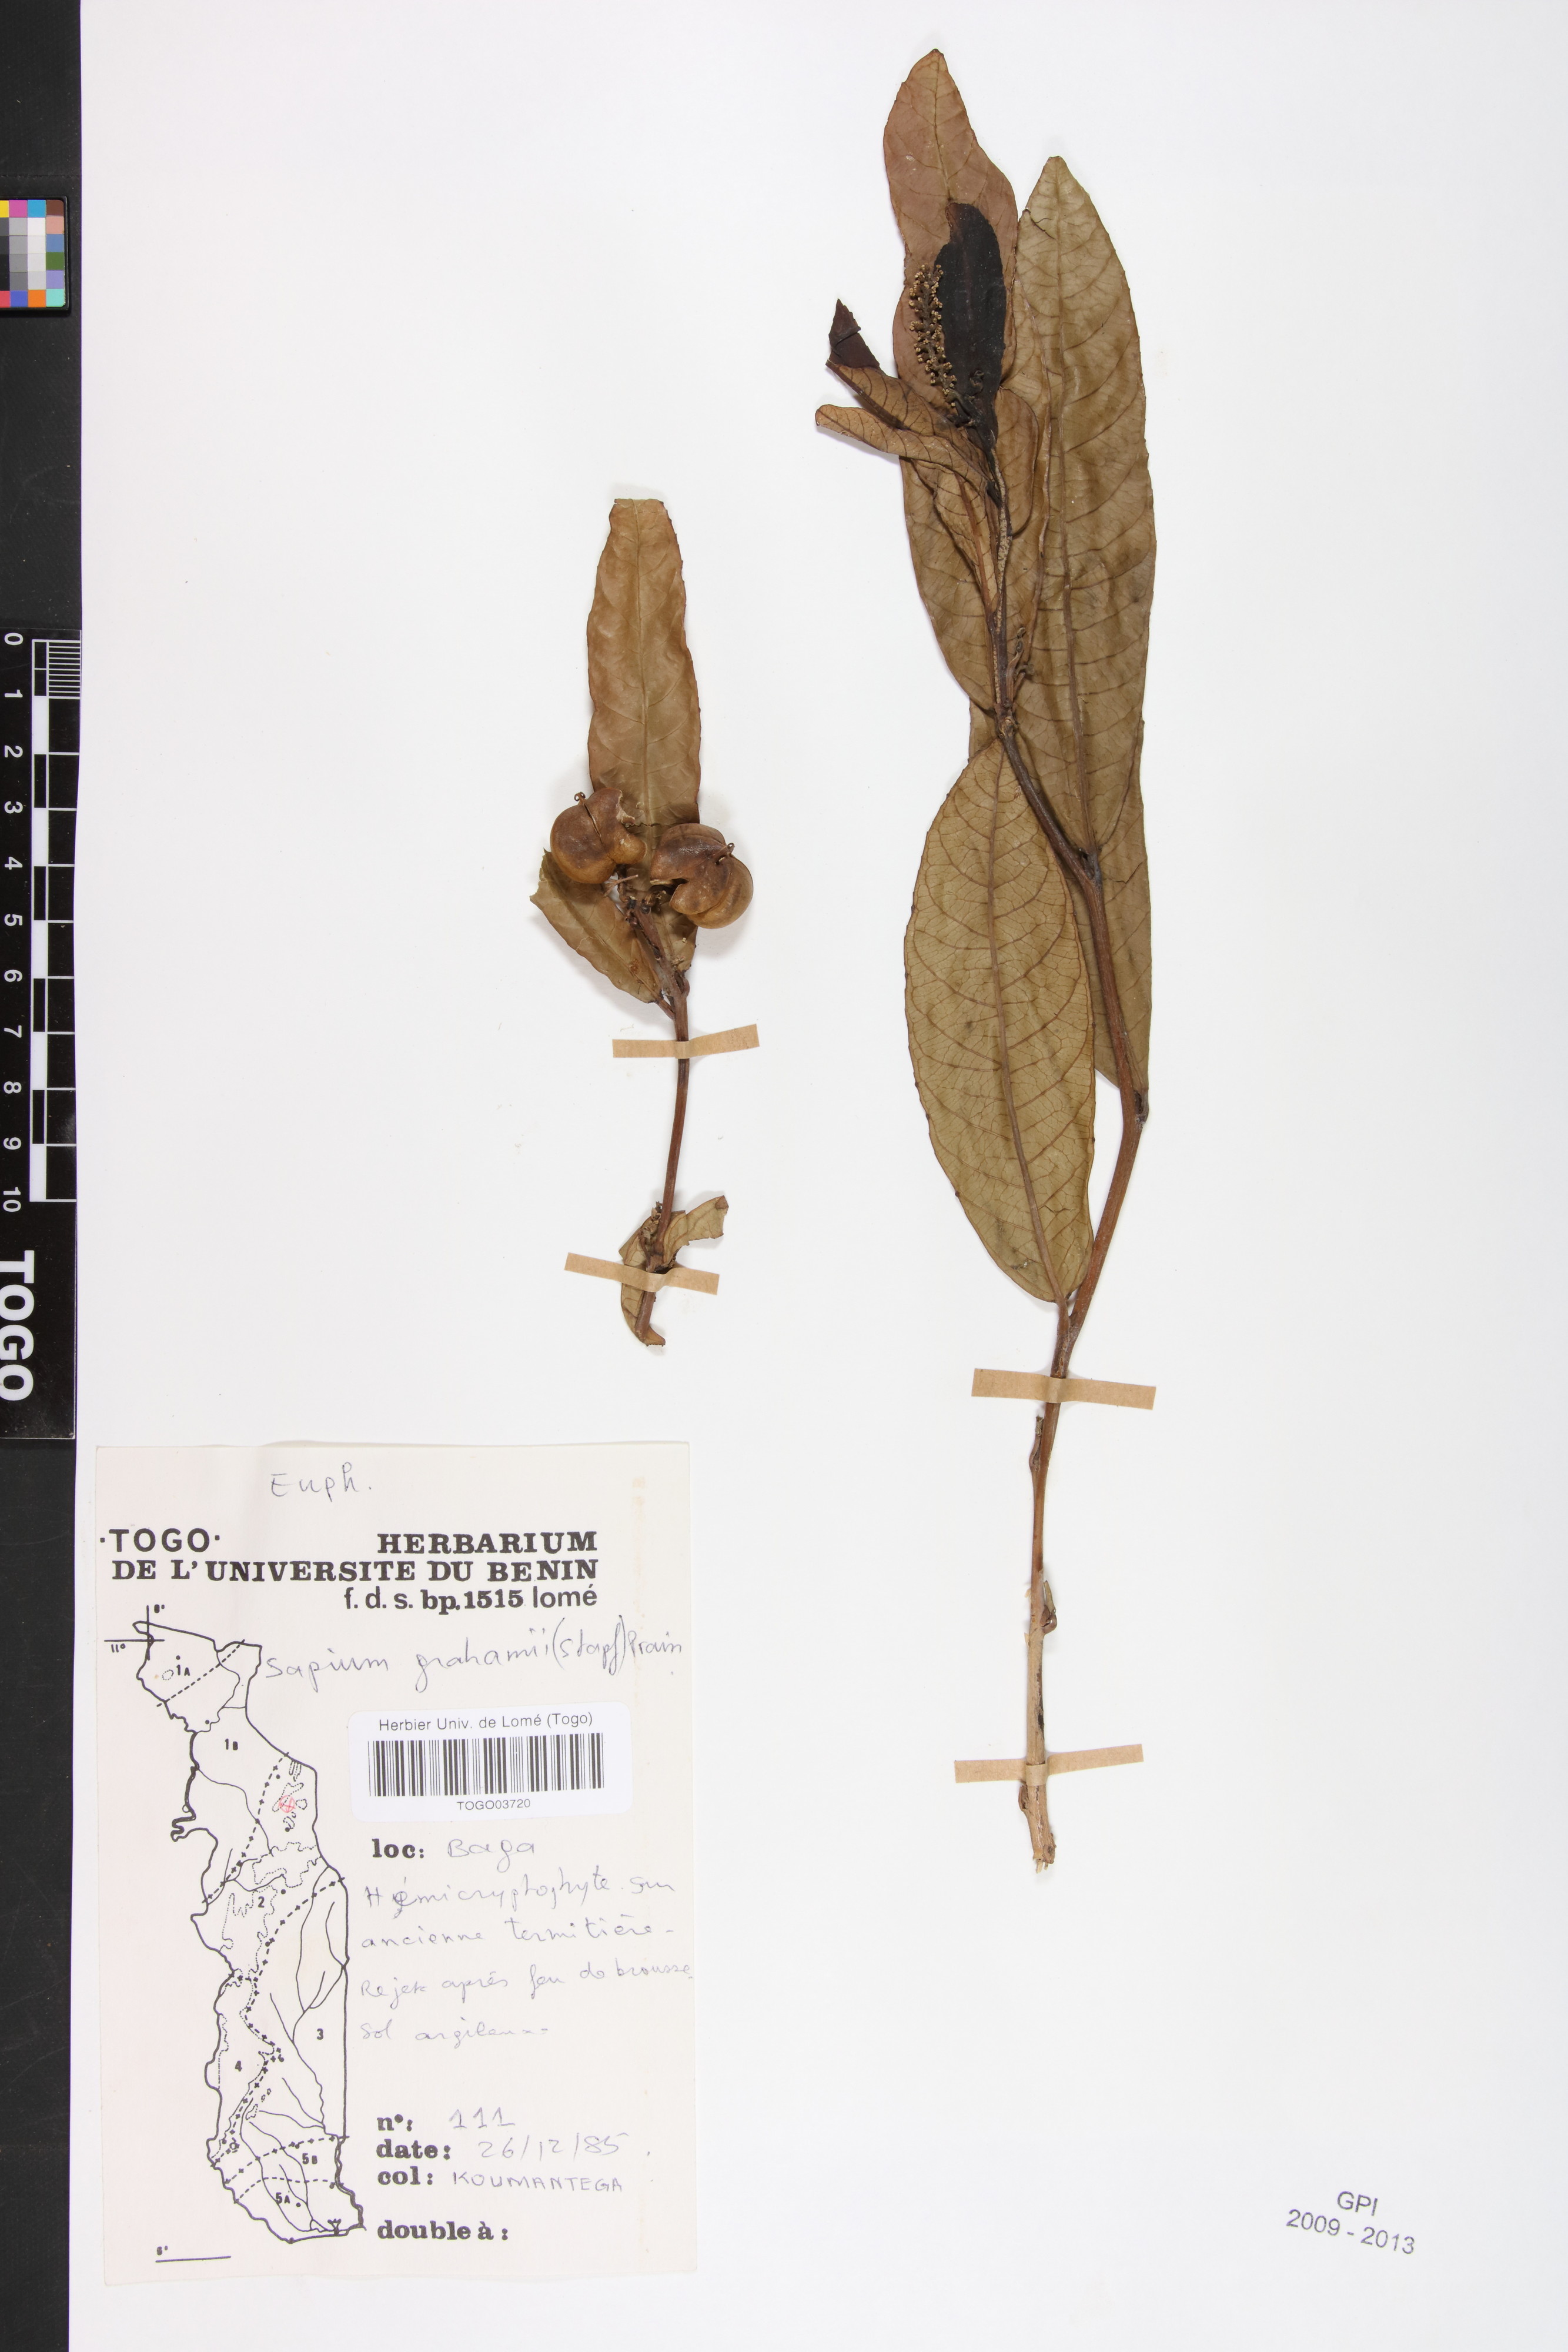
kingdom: Plantae
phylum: Tracheophyta
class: Magnoliopsida
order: Malpighiales
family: Euphorbiaceae
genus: Excoecaria
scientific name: Excoecaria grahamii
